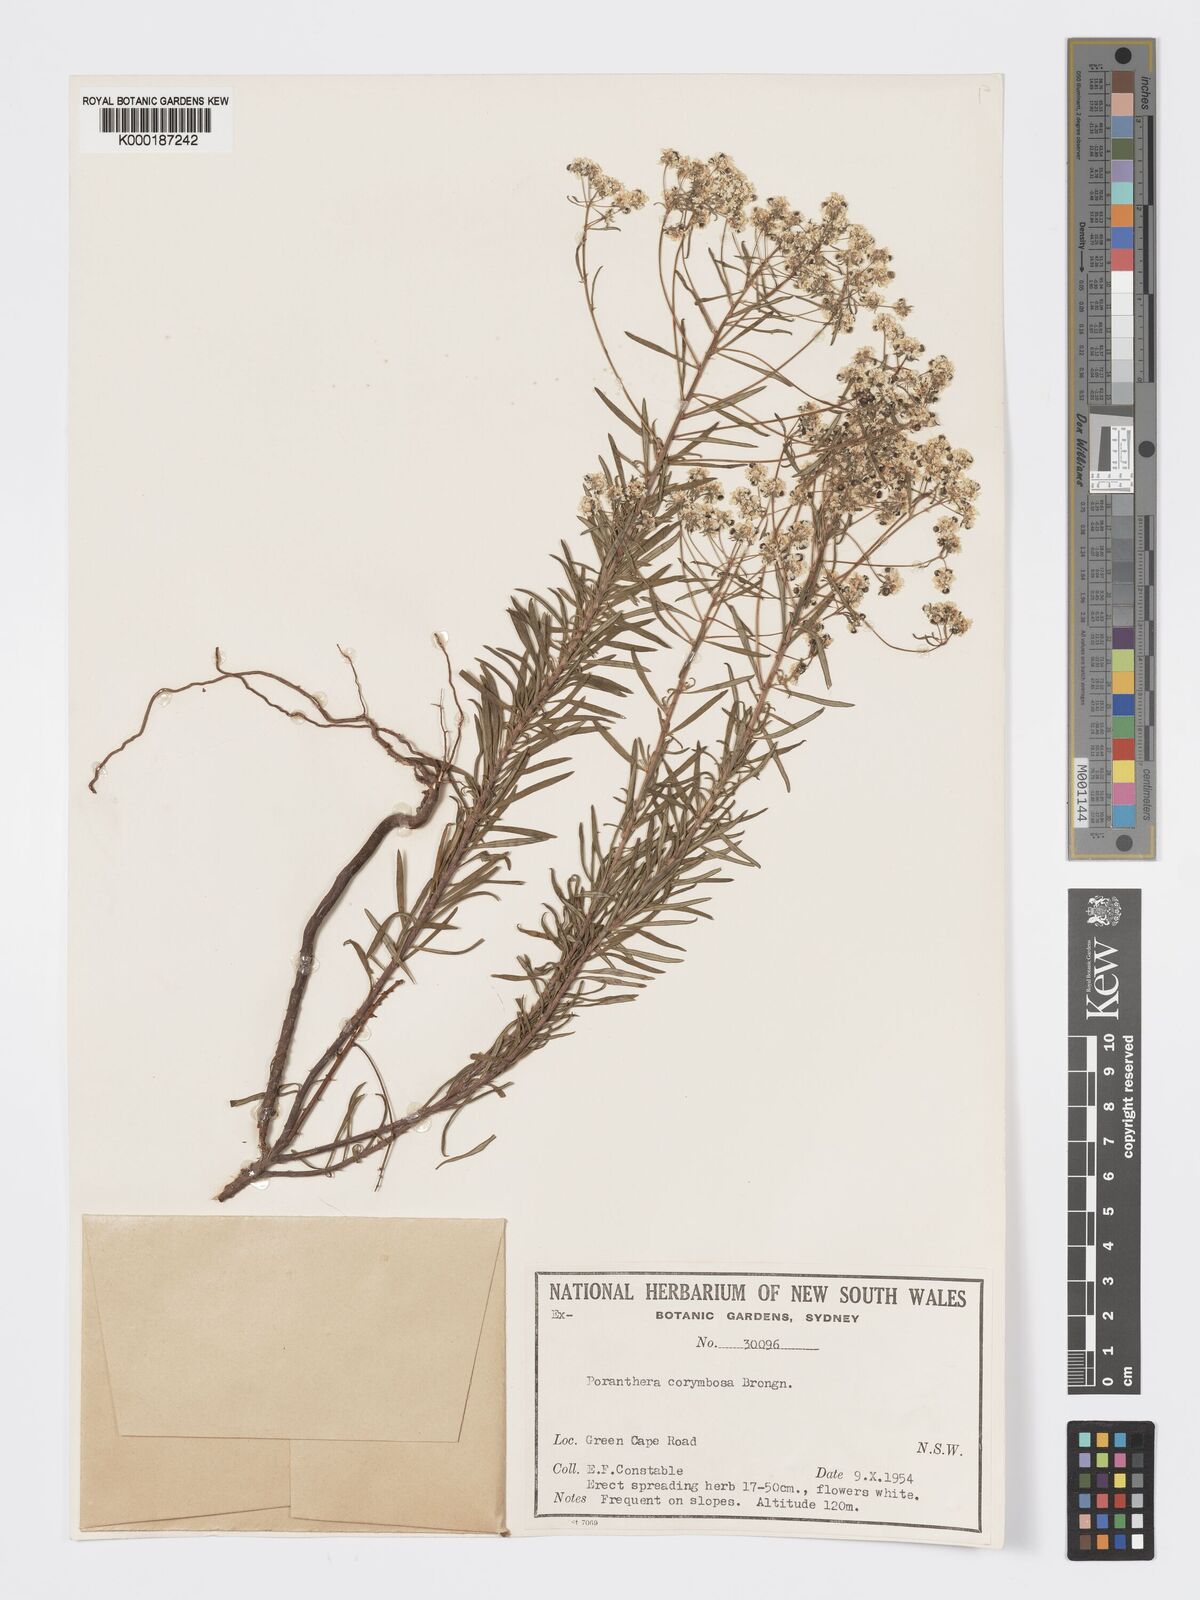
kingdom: Plantae
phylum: Tracheophyta
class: Magnoliopsida
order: Malpighiales
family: Phyllanthaceae
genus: Poranthera
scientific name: Poranthera corymbosa
